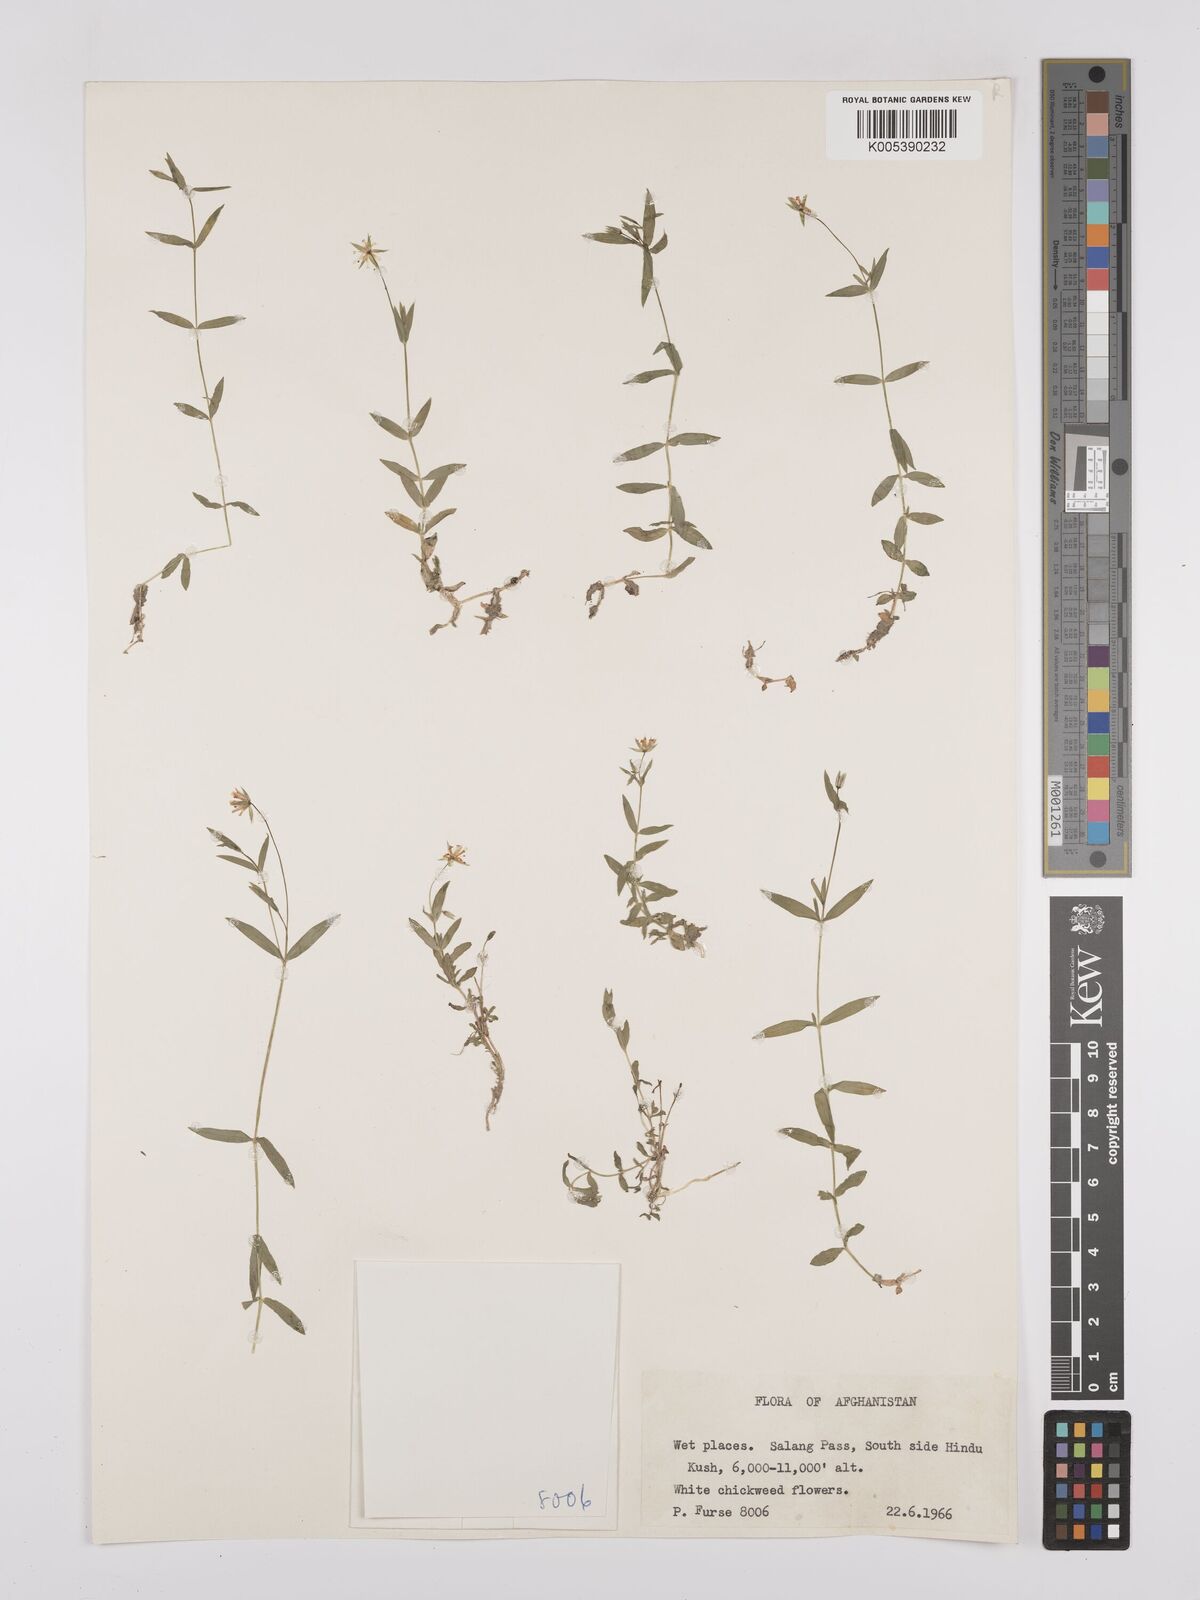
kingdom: Plantae
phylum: Tracheophyta
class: Magnoliopsida
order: Caryophyllales
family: Caryophyllaceae
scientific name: Caryophyllaceae
